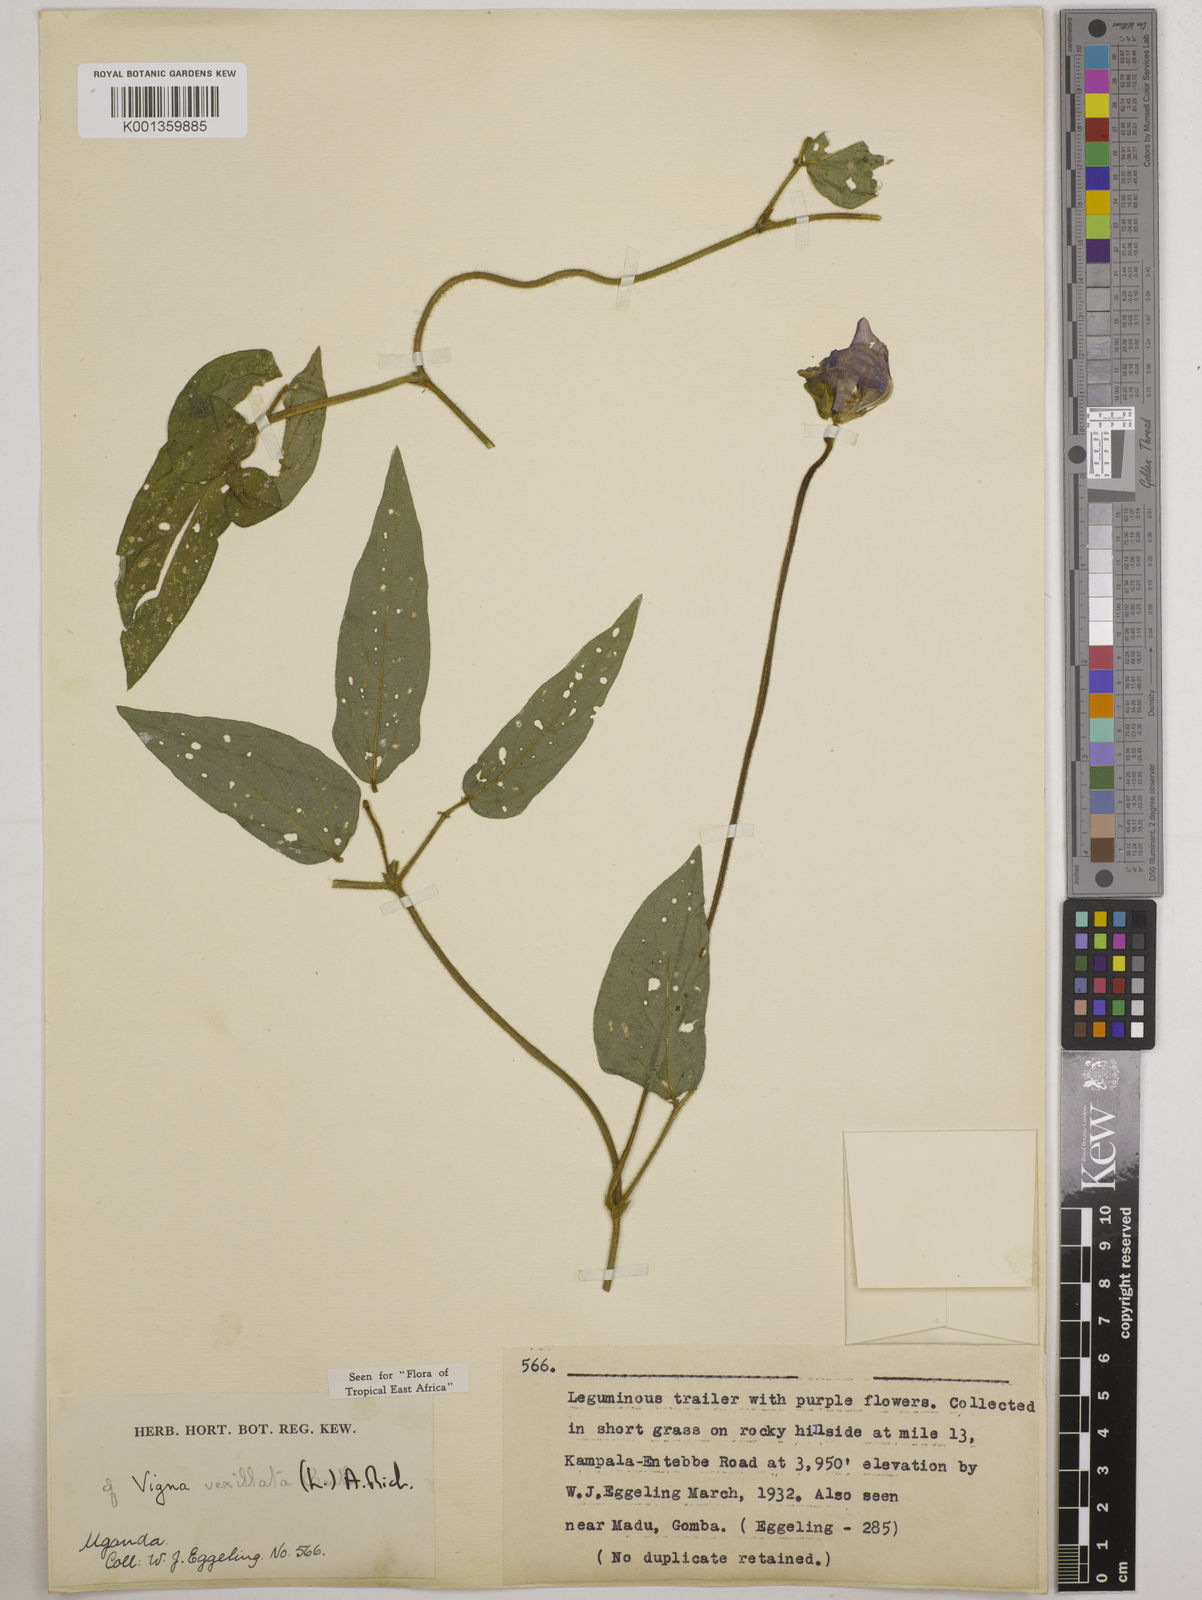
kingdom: Plantae
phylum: Tracheophyta
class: Magnoliopsida
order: Fabales
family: Fabaceae
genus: Vigna
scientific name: Vigna vexillata
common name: Zombi pea
